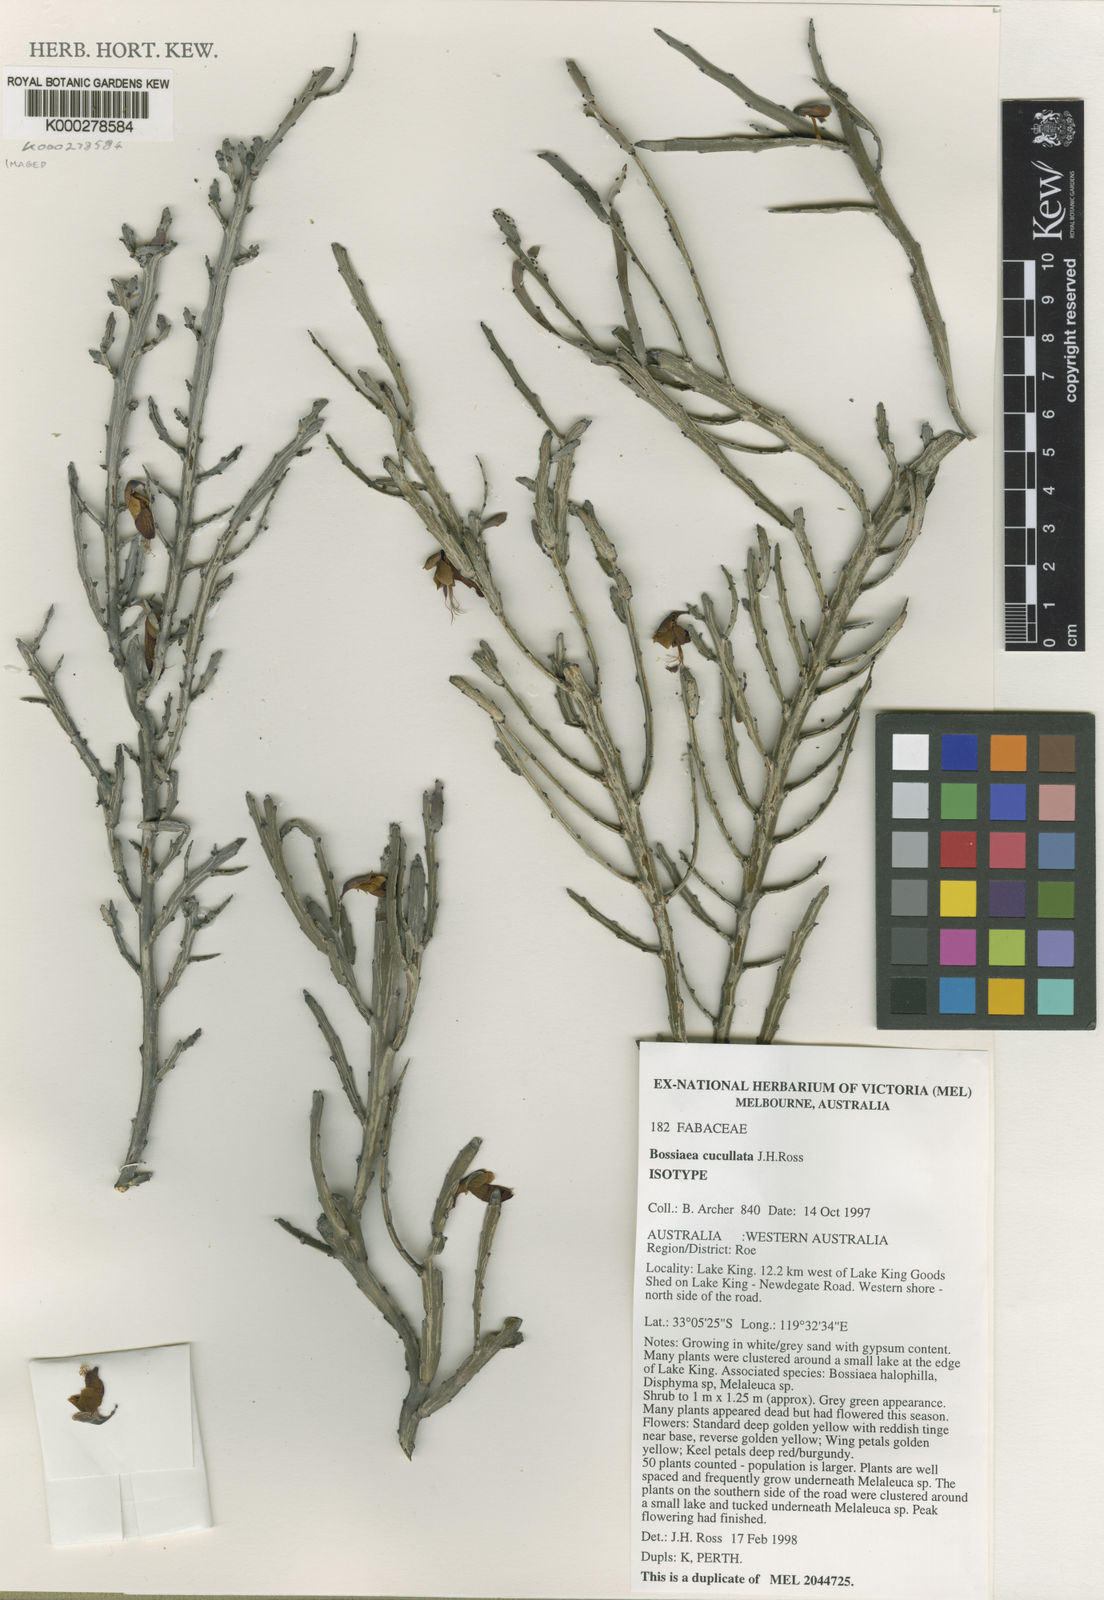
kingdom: Plantae
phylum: Tracheophyta
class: Magnoliopsida
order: Fabales
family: Fabaceae
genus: Bossiaea
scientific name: Bossiaea cucullata
